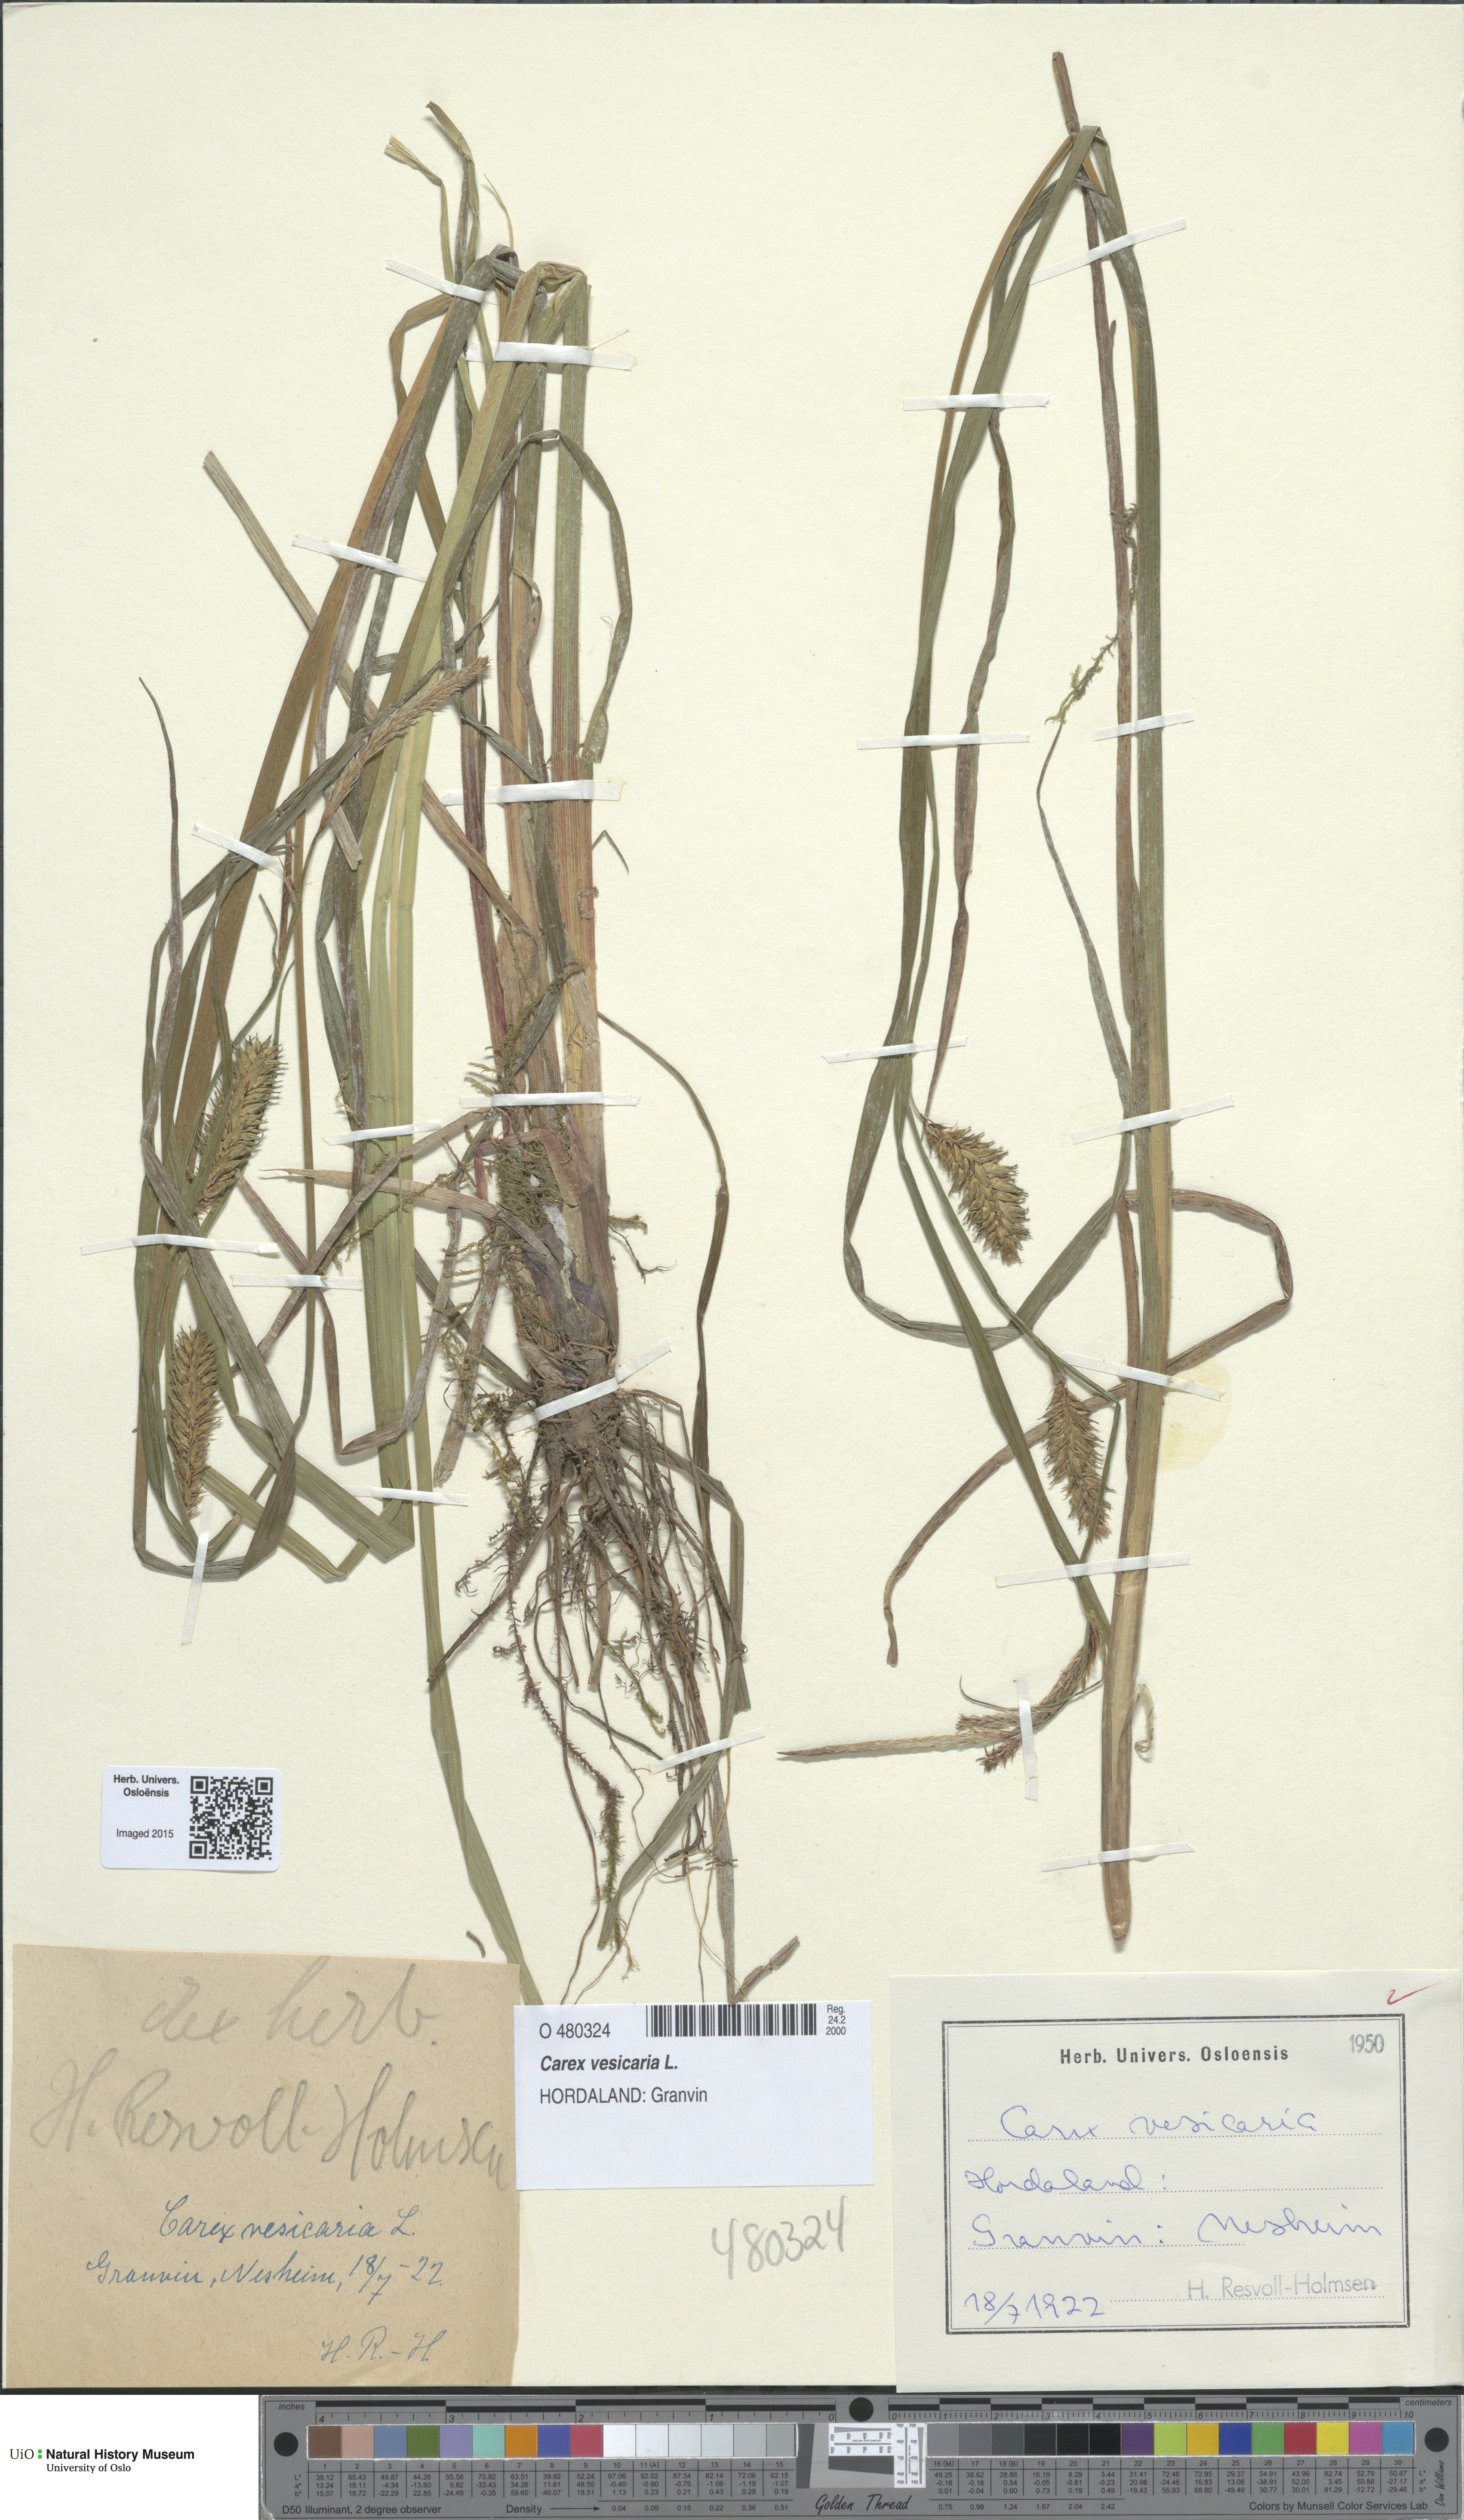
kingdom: Plantae
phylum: Tracheophyta
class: Liliopsida
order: Poales
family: Cyperaceae
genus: Carex
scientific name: Carex vesicaria
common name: Bladder-sedge
